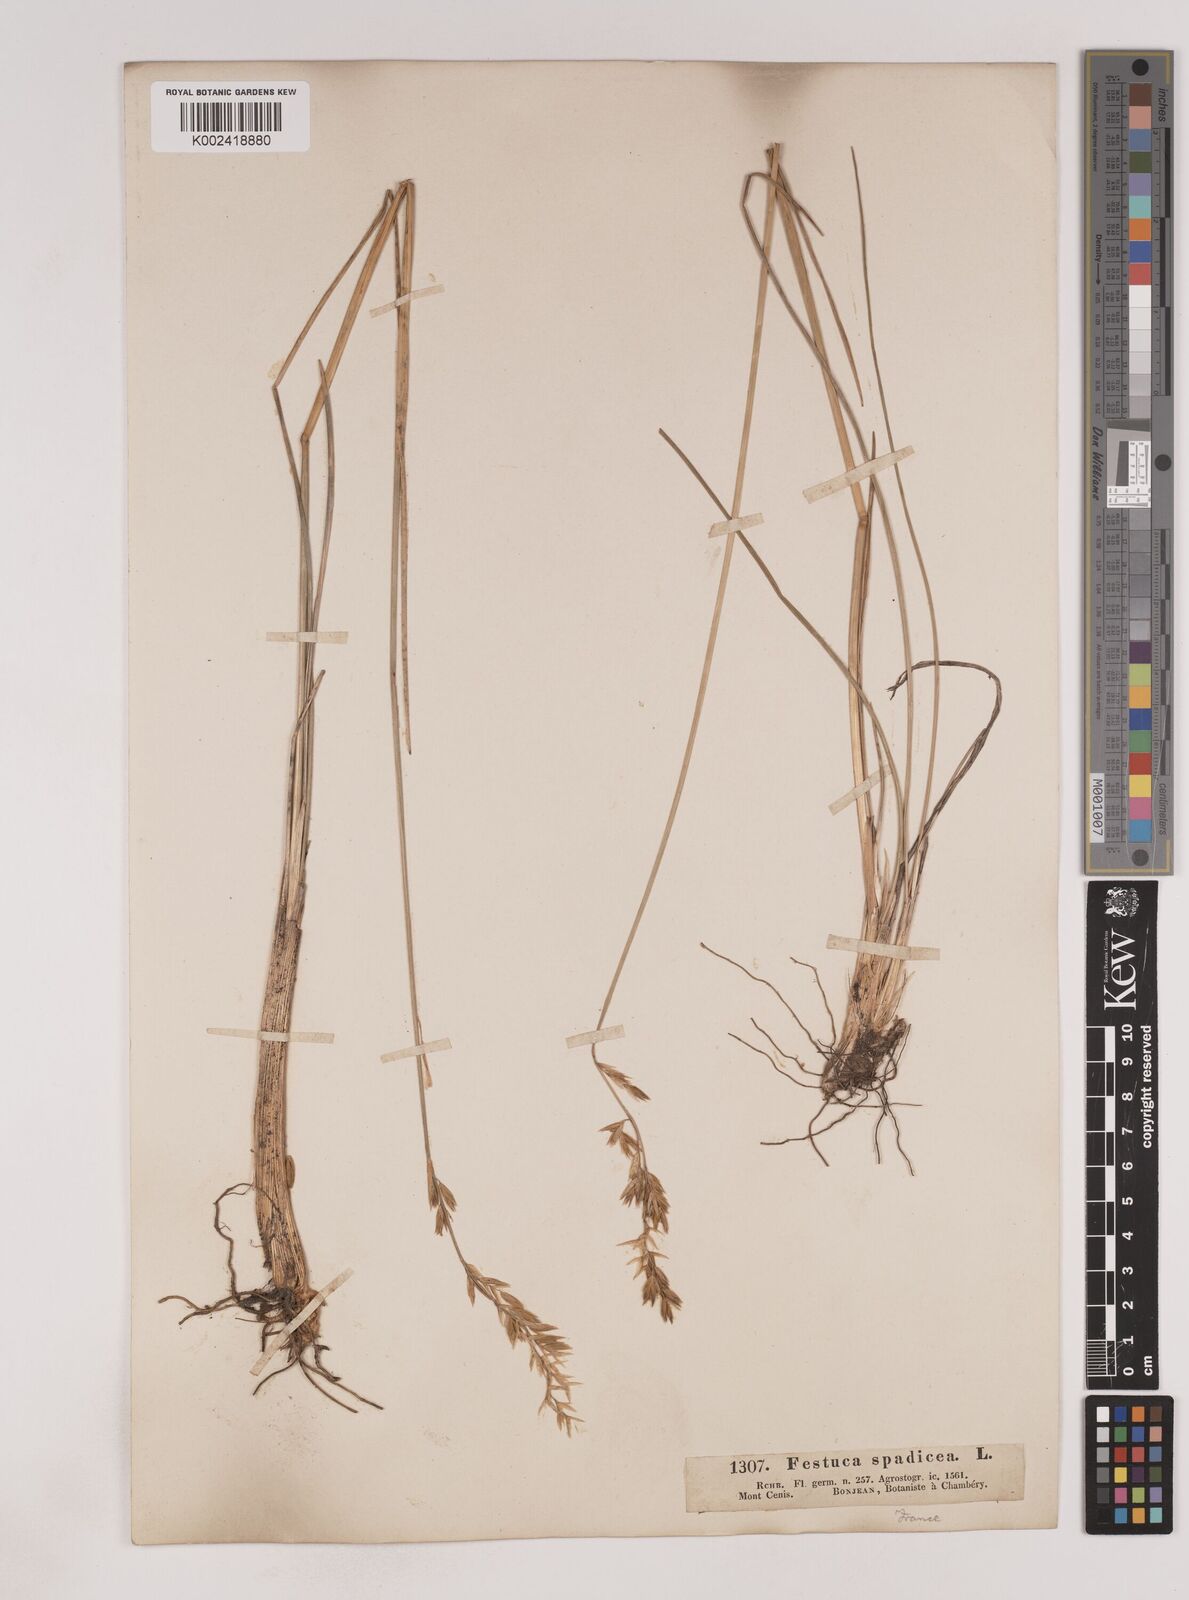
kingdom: Plantae
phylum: Tracheophyta
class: Liliopsida
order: Poales
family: Poaceae
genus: Patzkea
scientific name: Patzkea paniculata
